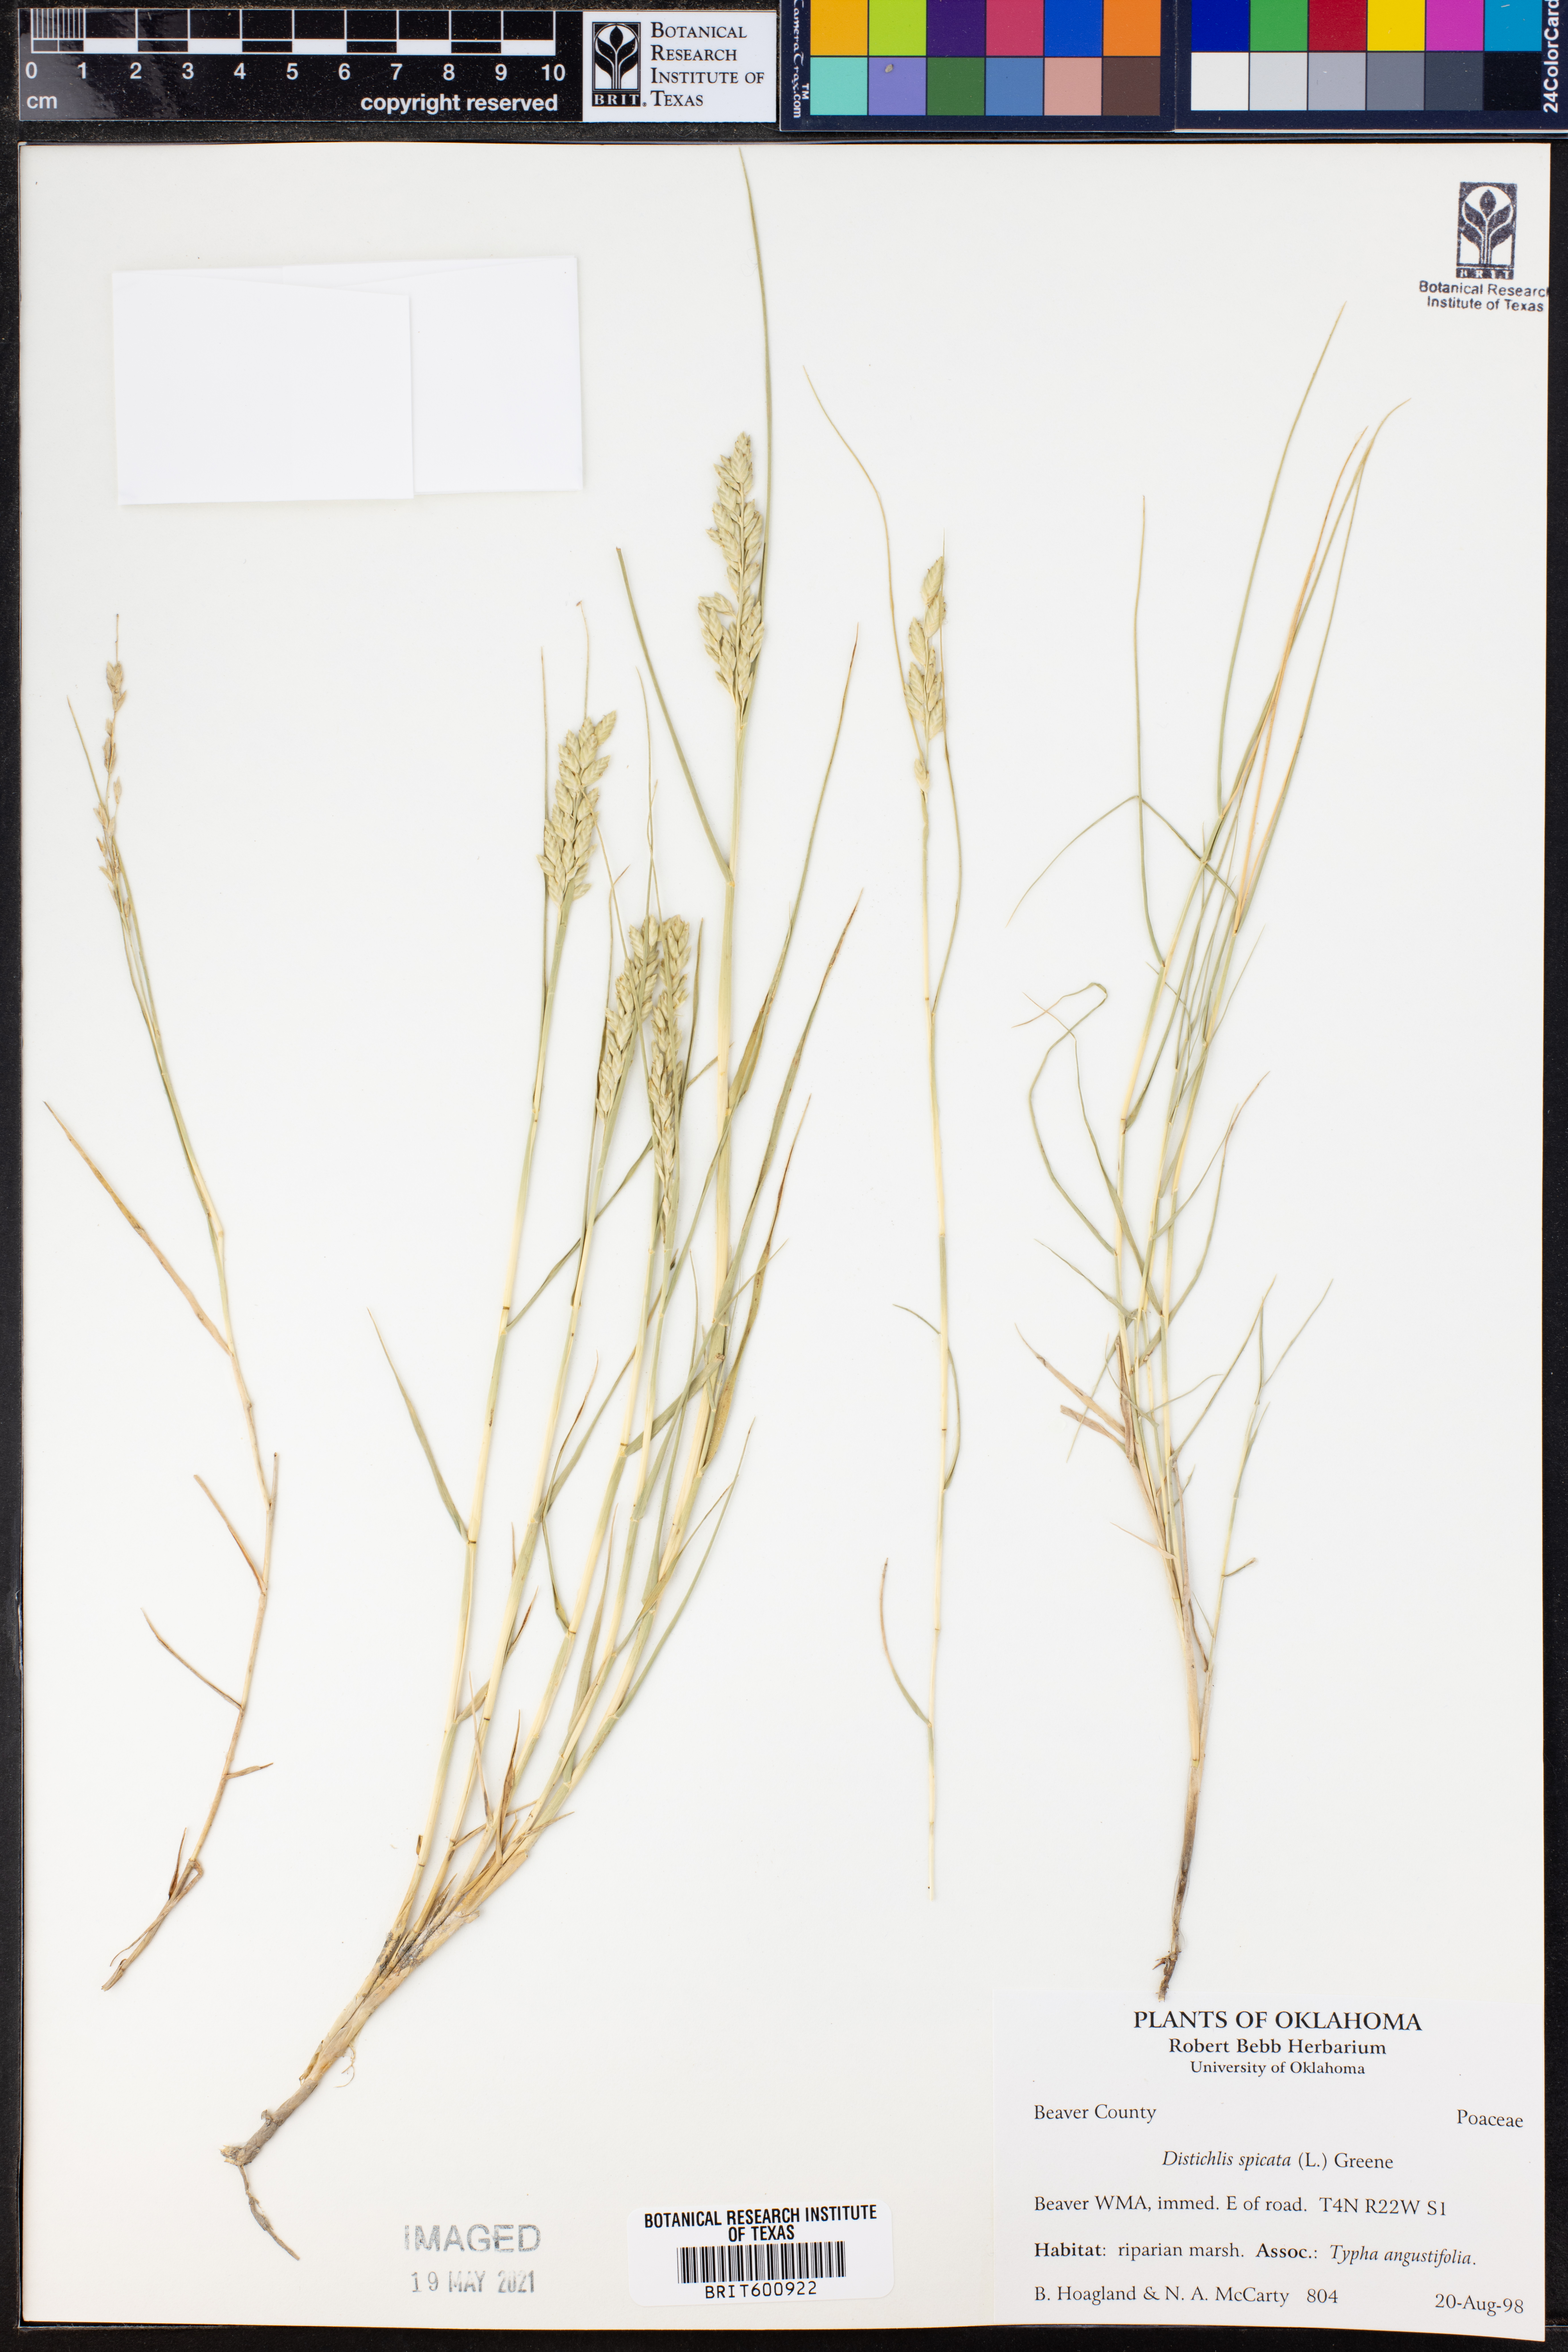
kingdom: Plantae
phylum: Tracheophyta
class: Liliopsida
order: Poales
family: Poaceae
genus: Distichlis
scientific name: Distichlis spicata
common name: Saltgrass
